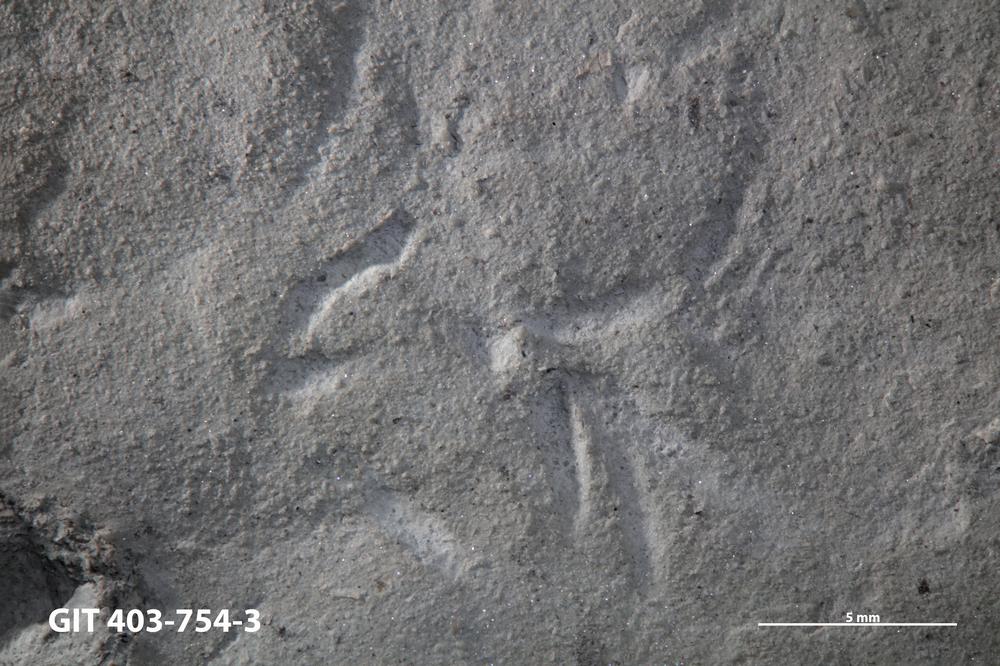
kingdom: Animalia
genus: Chondrites
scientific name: Chondrites
